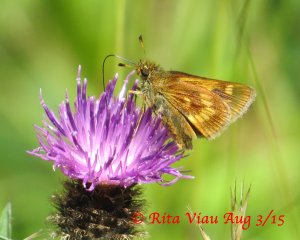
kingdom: Animalia
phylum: Arthropoda
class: Insecta
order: Lepidoptera
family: Hesperiidae
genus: Polites
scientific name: Polites
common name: Long Dash Skipper
